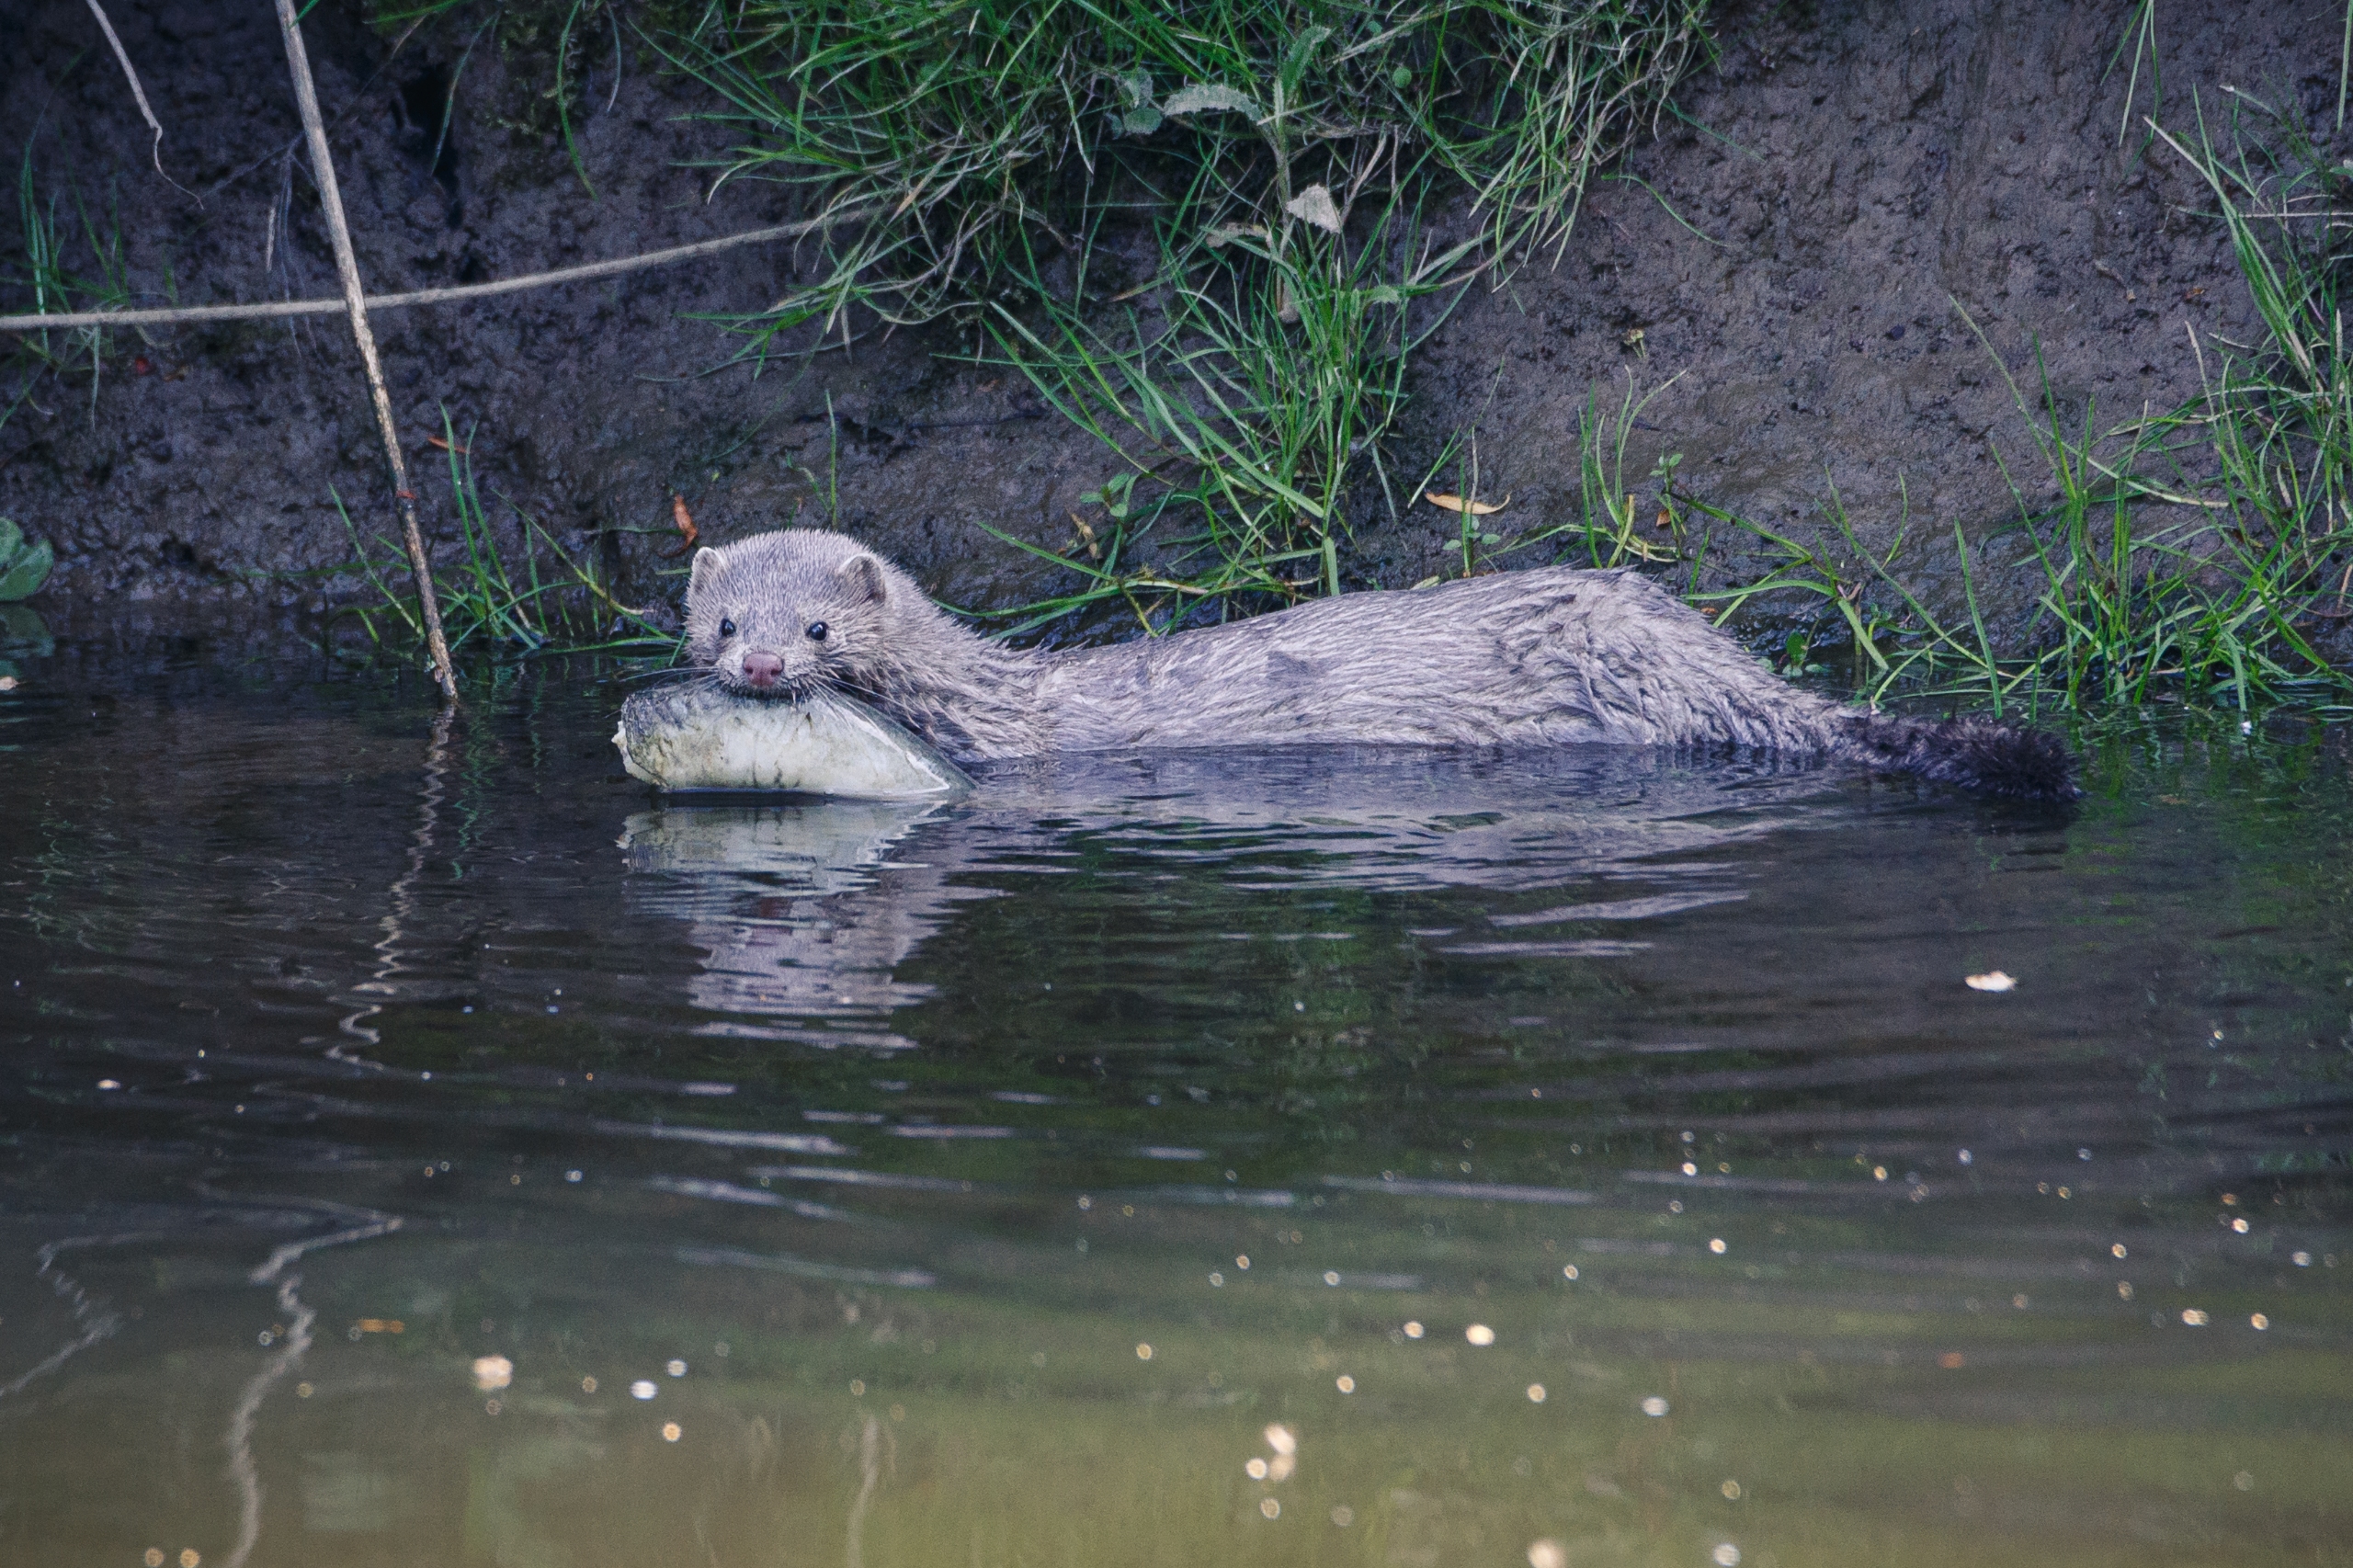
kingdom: Animalia
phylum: Chordata
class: Mammalia
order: Carnivora
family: Mustelidae
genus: Mustela
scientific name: Mustela vison
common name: Mink
